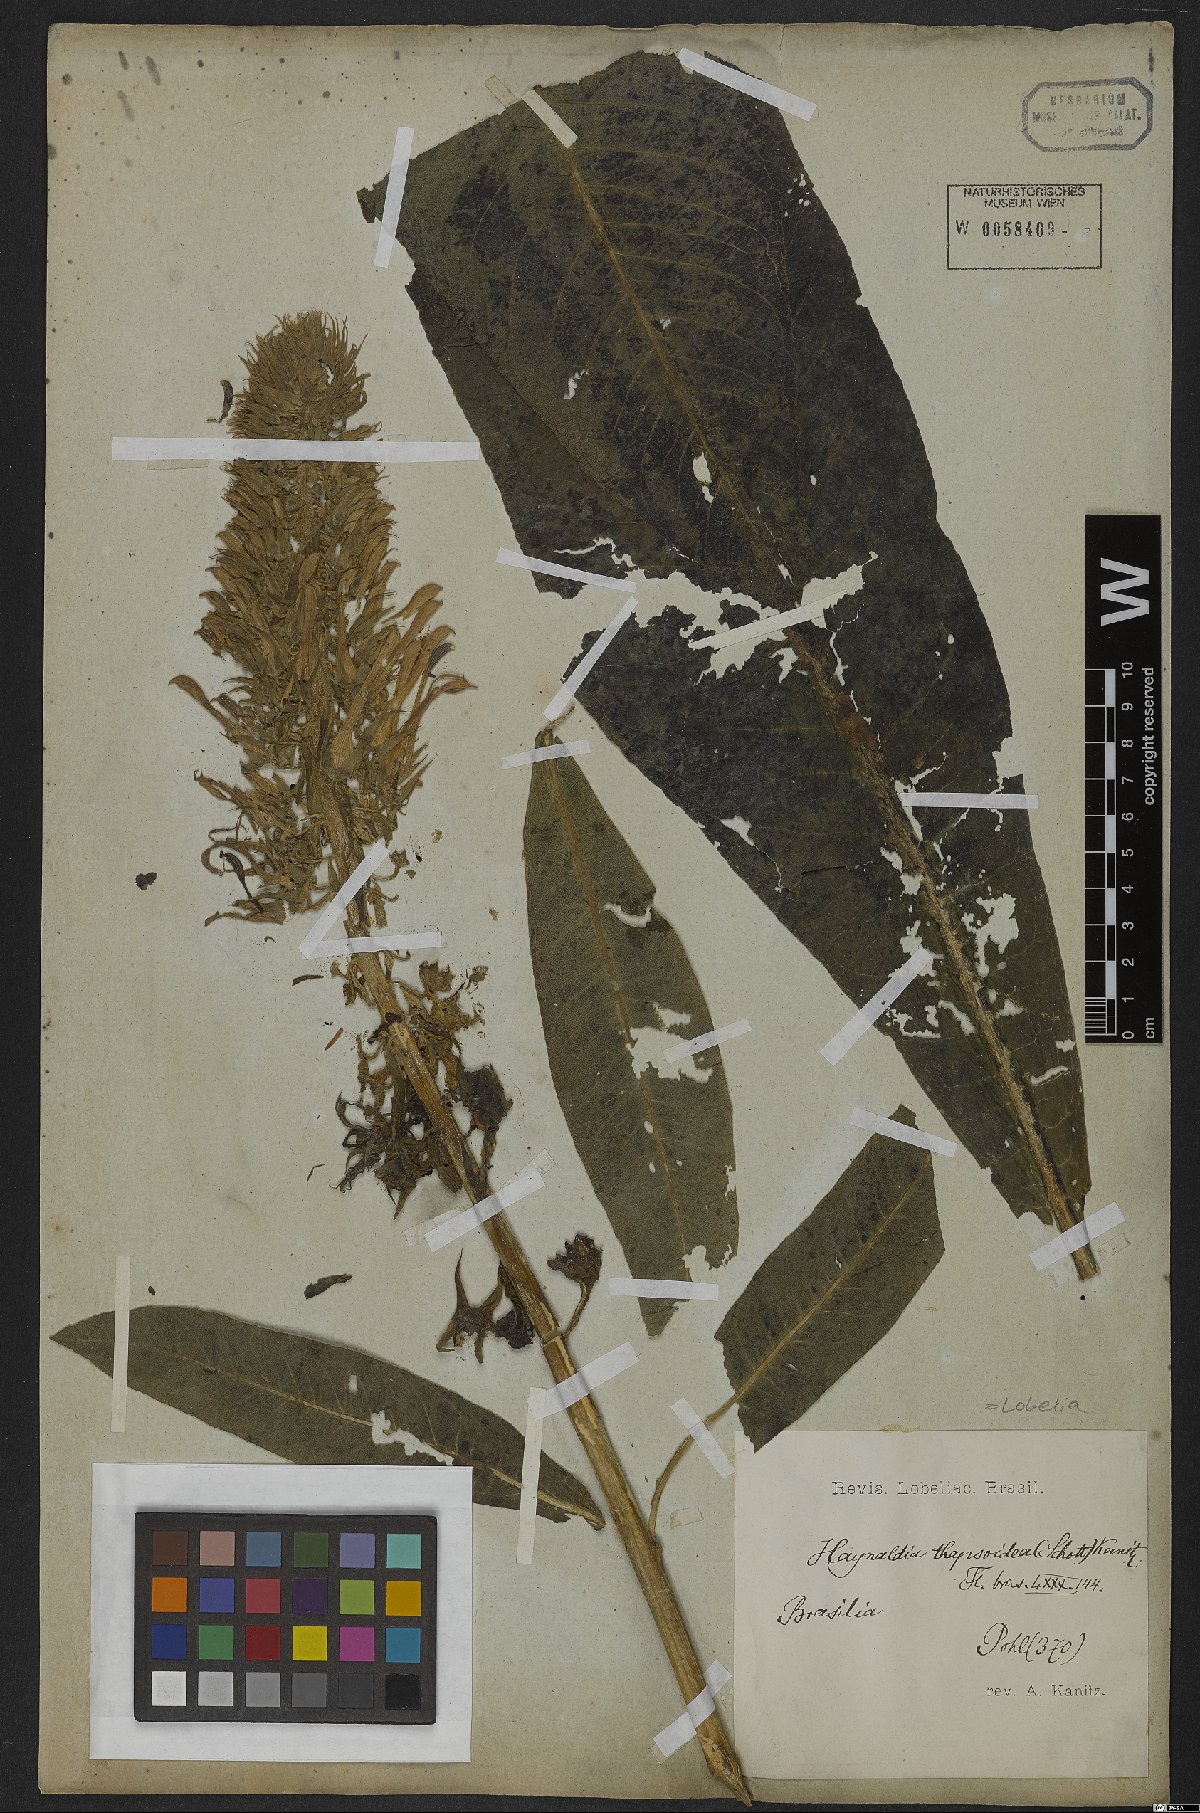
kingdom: Plantae
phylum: Tracheophyta
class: Magnoliopsida
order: Asterales
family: Campanulaceae
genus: Lobelia
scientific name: Lobelia thapsoidea
